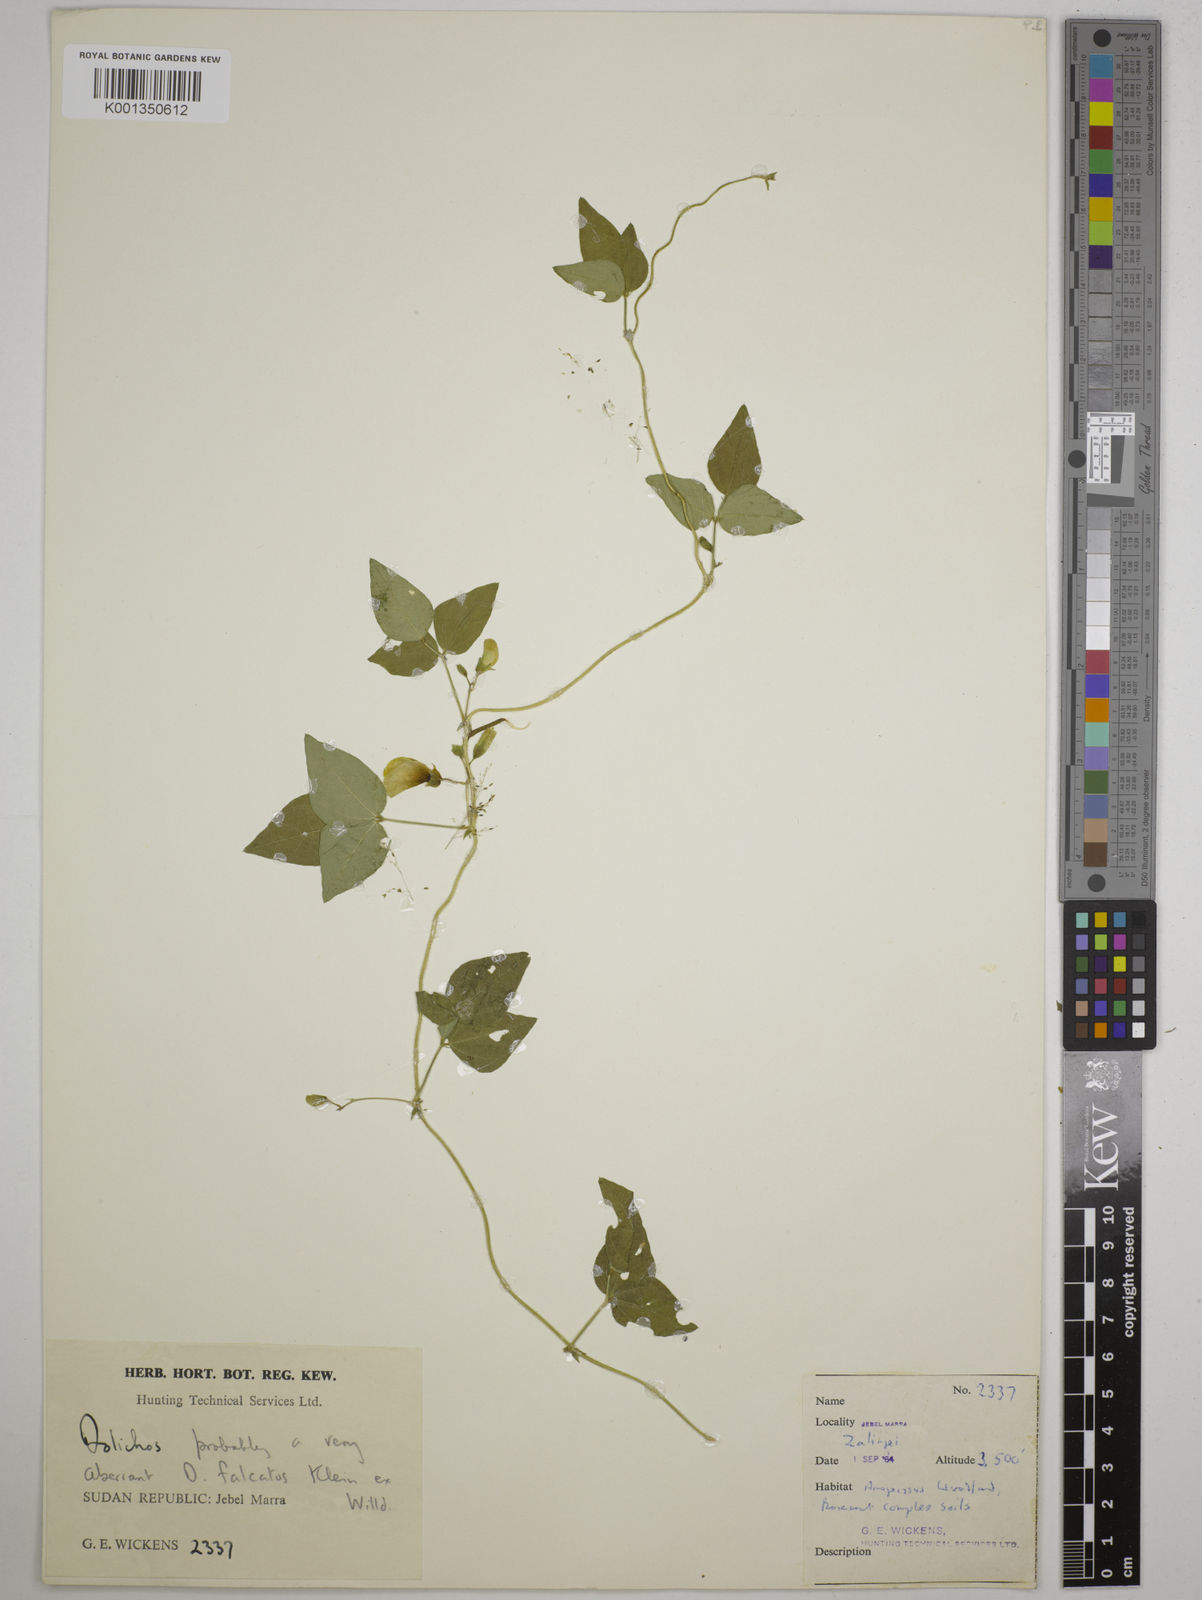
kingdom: Plantae
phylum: Tracheophyta
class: Magnoliopsida
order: Fabales
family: Fabaceae
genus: Dolichos
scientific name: Dolichos trilobus
